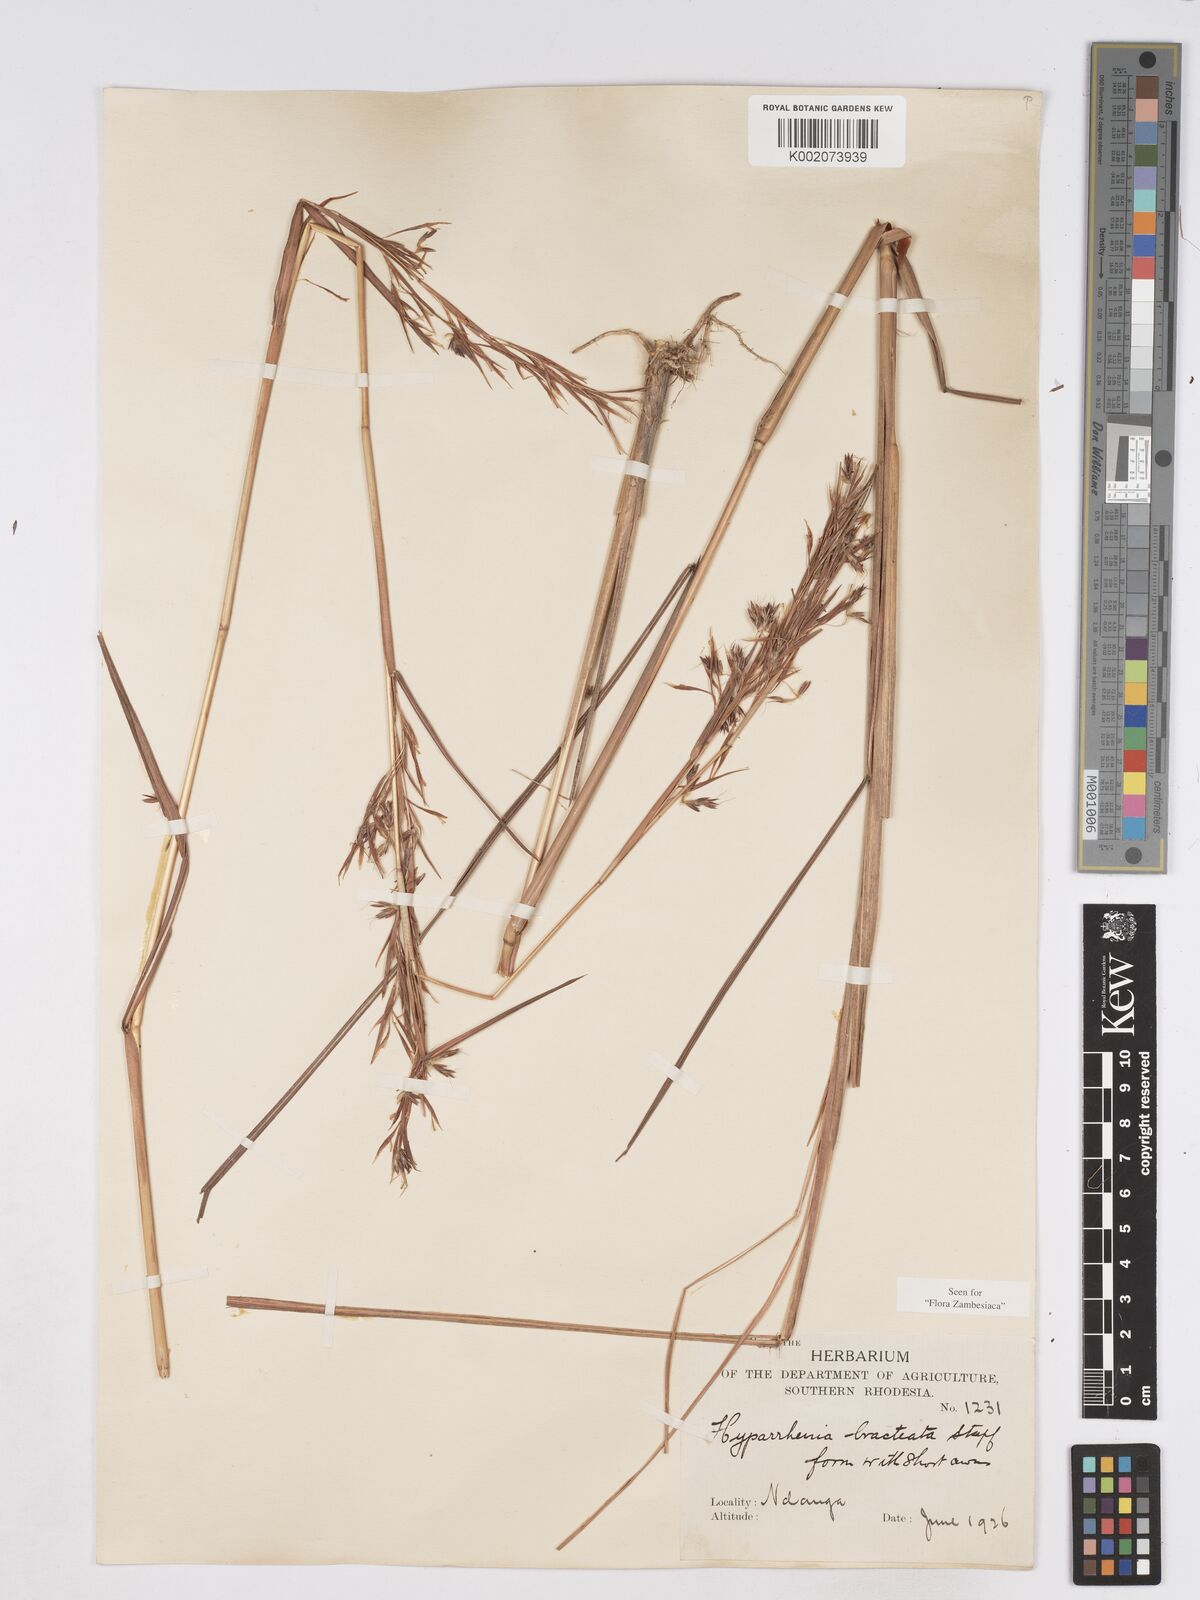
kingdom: Plantae
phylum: Tracheophyta
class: Liliopsida
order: Poales
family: Poaceae
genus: Hyparrhenia
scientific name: Hyparrhenia bracteata
